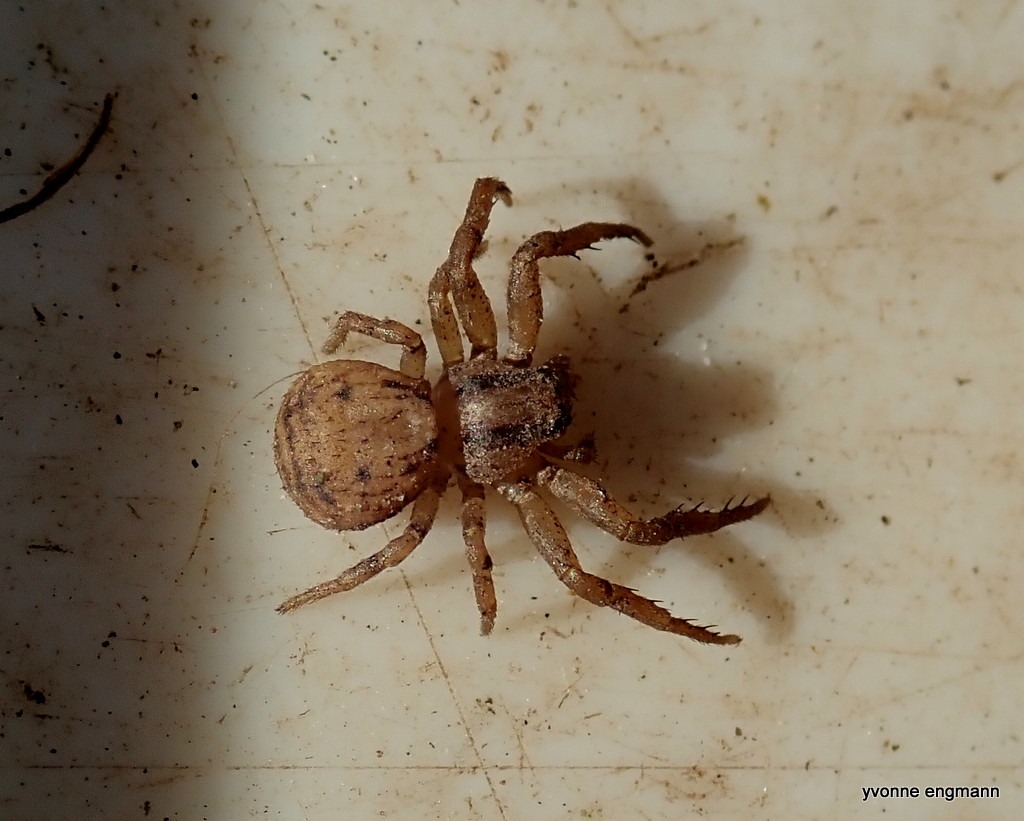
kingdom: Animalia
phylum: Arthropoda
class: Arachnida
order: Araneae
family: Thomisidae
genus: Ozyptila
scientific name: Ozyptila
